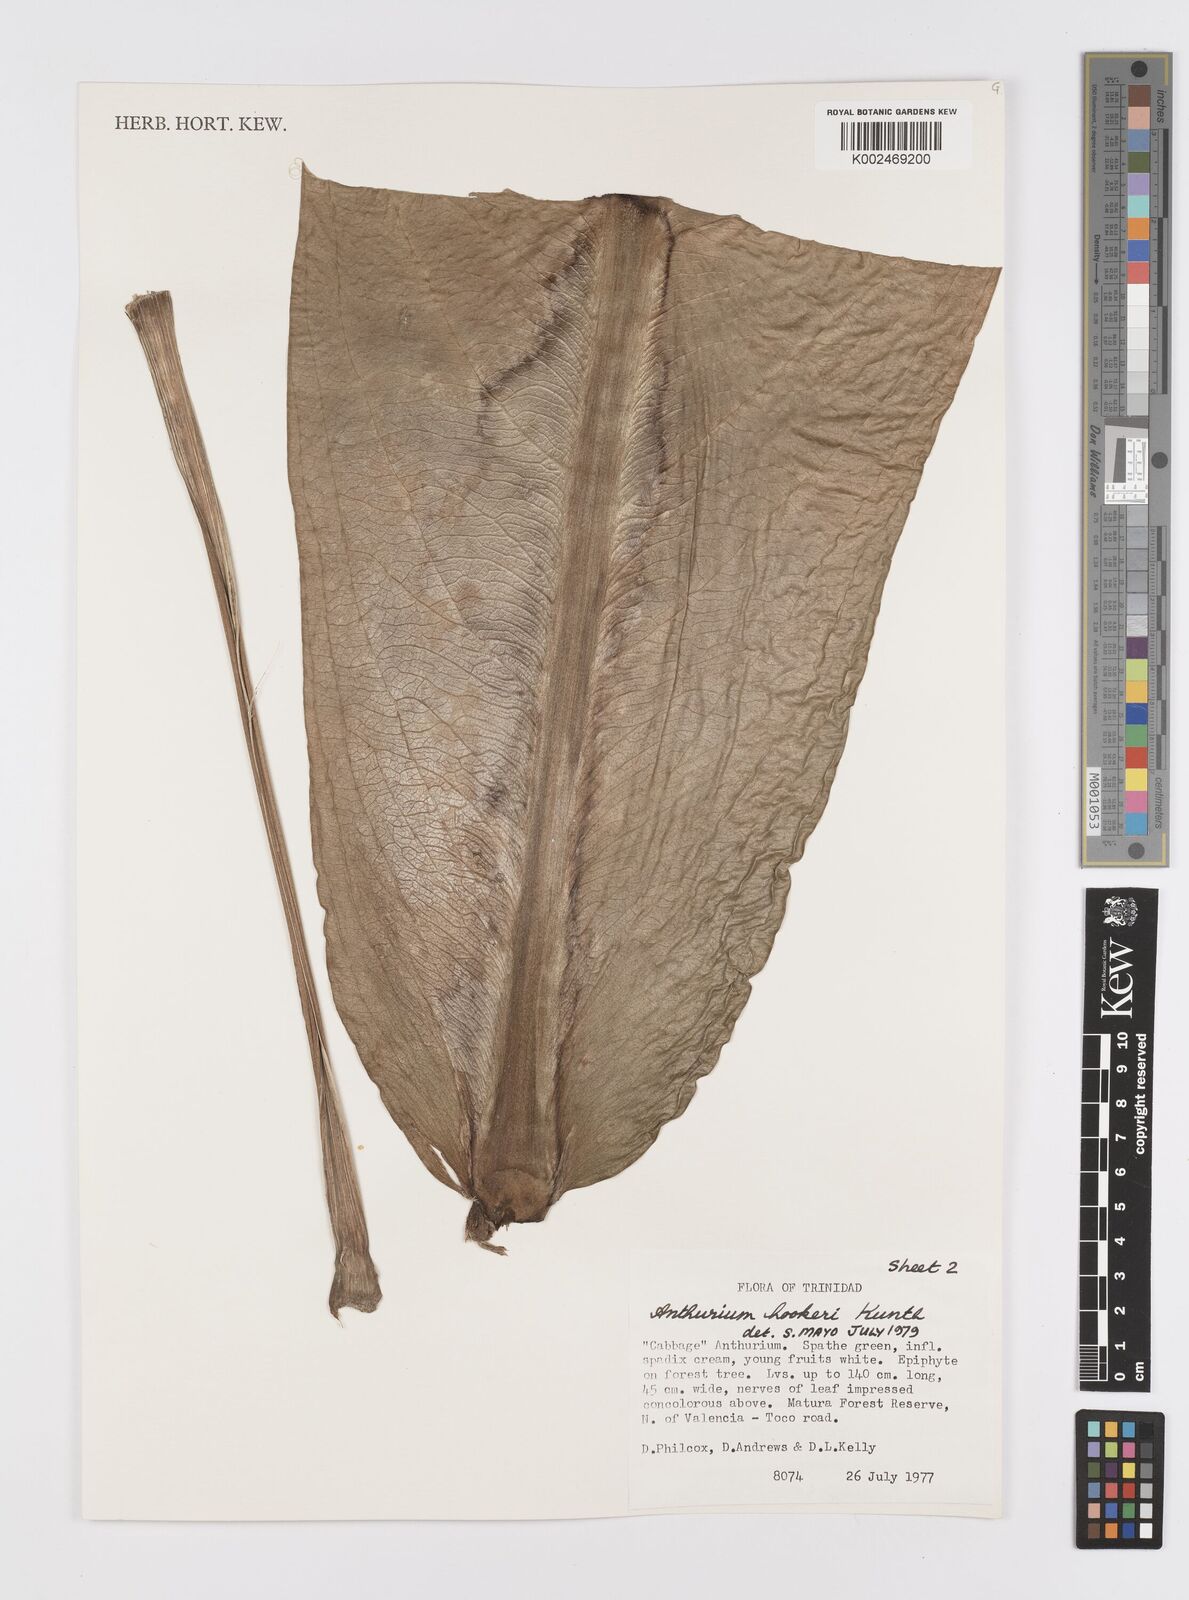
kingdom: Plantae
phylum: Tracheophyta
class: Liliopsida
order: Alismatales
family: Araceae
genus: Anthurium
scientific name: Anthurium hookeri
